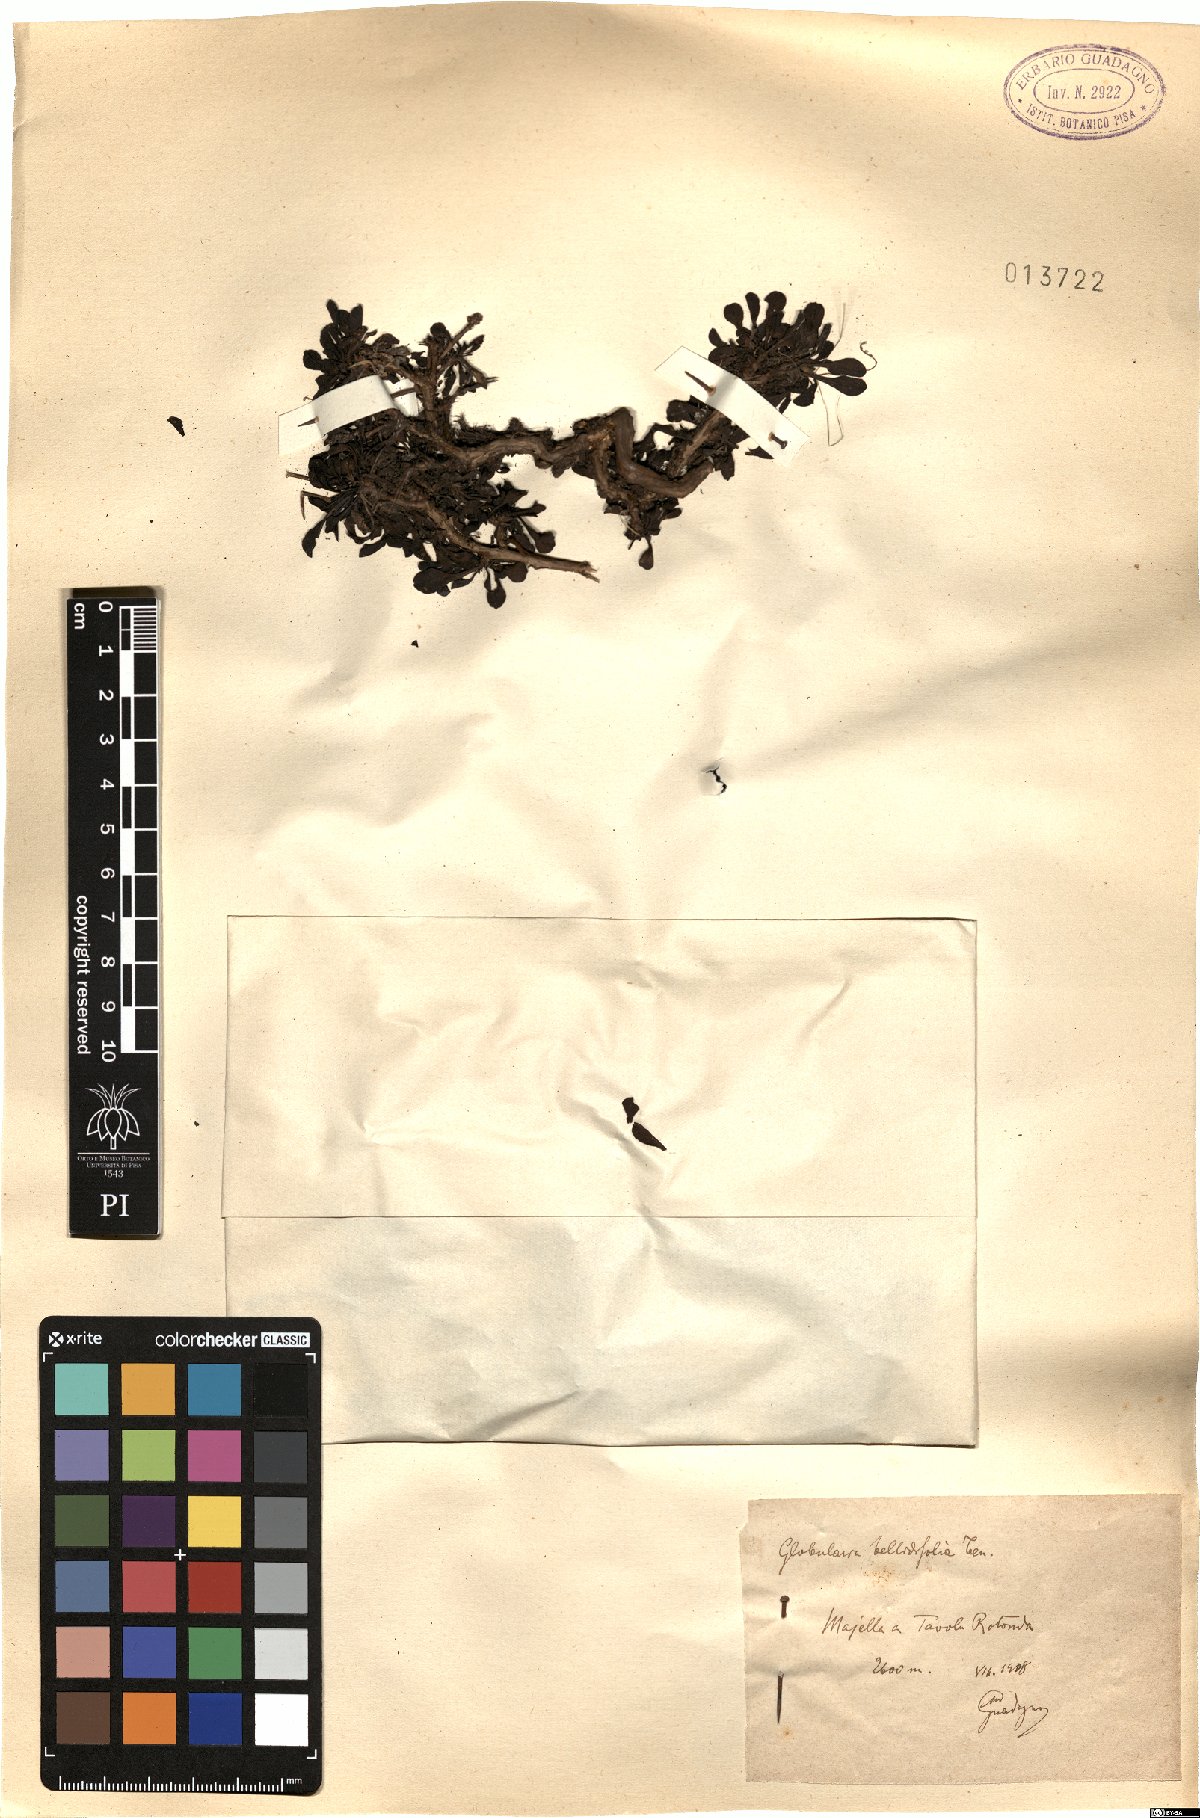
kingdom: Plantae
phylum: Tracheophyta
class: Magnoliopsida
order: Lamiales
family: Plantaginaceae
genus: Globularia
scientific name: Globularia meridionalis
